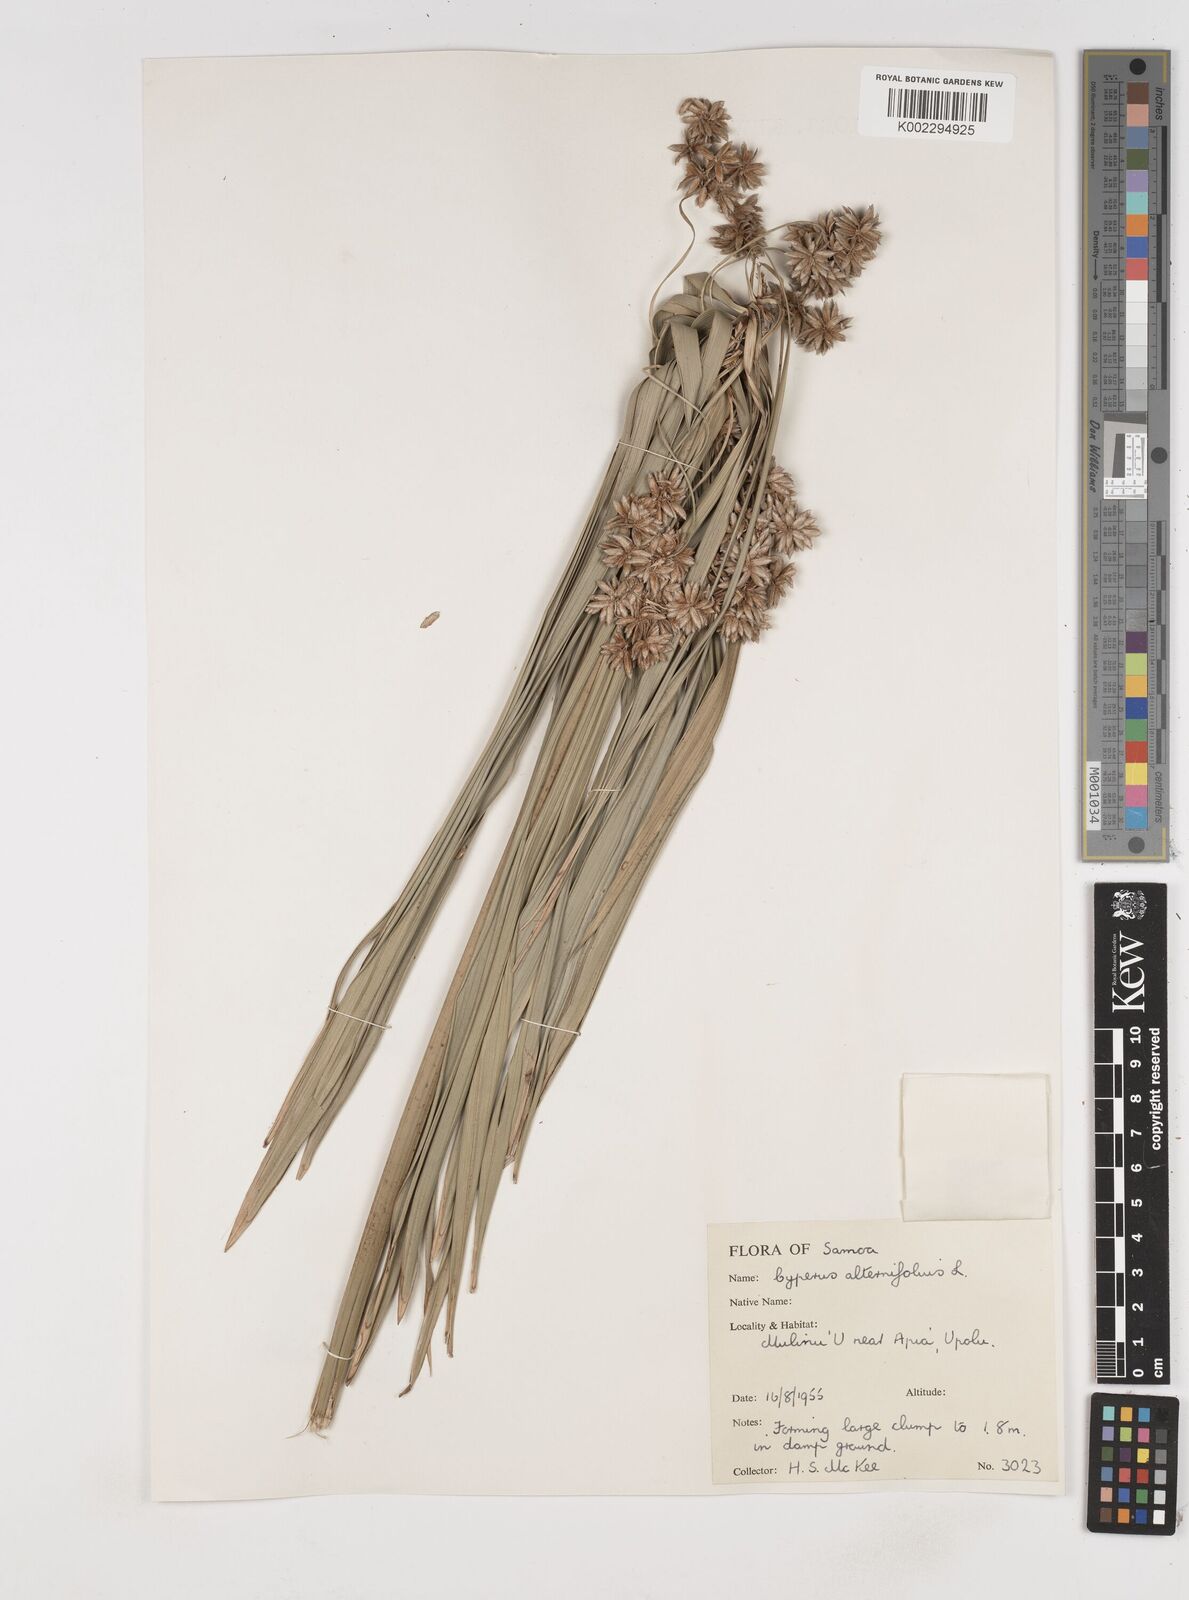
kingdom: Plantae
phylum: Tracheophyta
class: Liliopsida
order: Poales
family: Cyperaceae
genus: Cyperus
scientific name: Cyperus alternifolius
